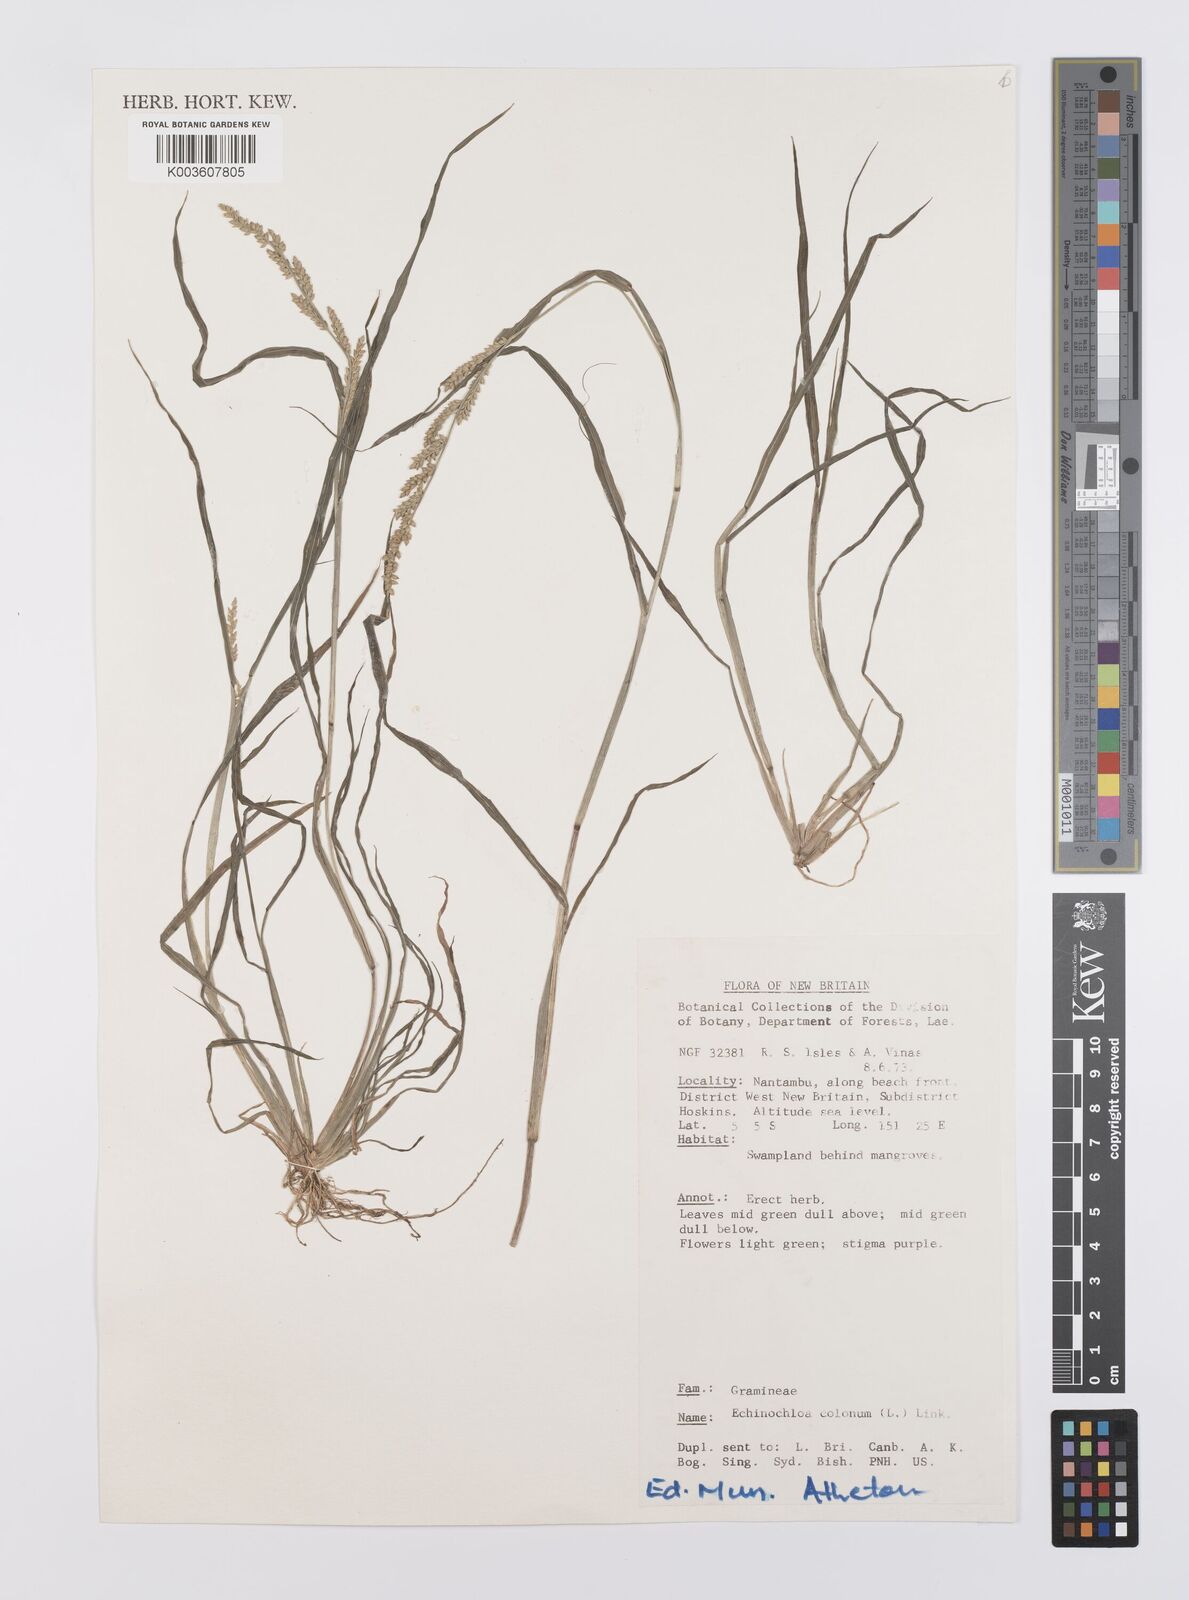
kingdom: Plantae
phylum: Tracheophyta
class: Liliopsida
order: Poales
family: Poaceae
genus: Echinochloa
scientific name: Echinochloa colonum
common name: Jungle rice
